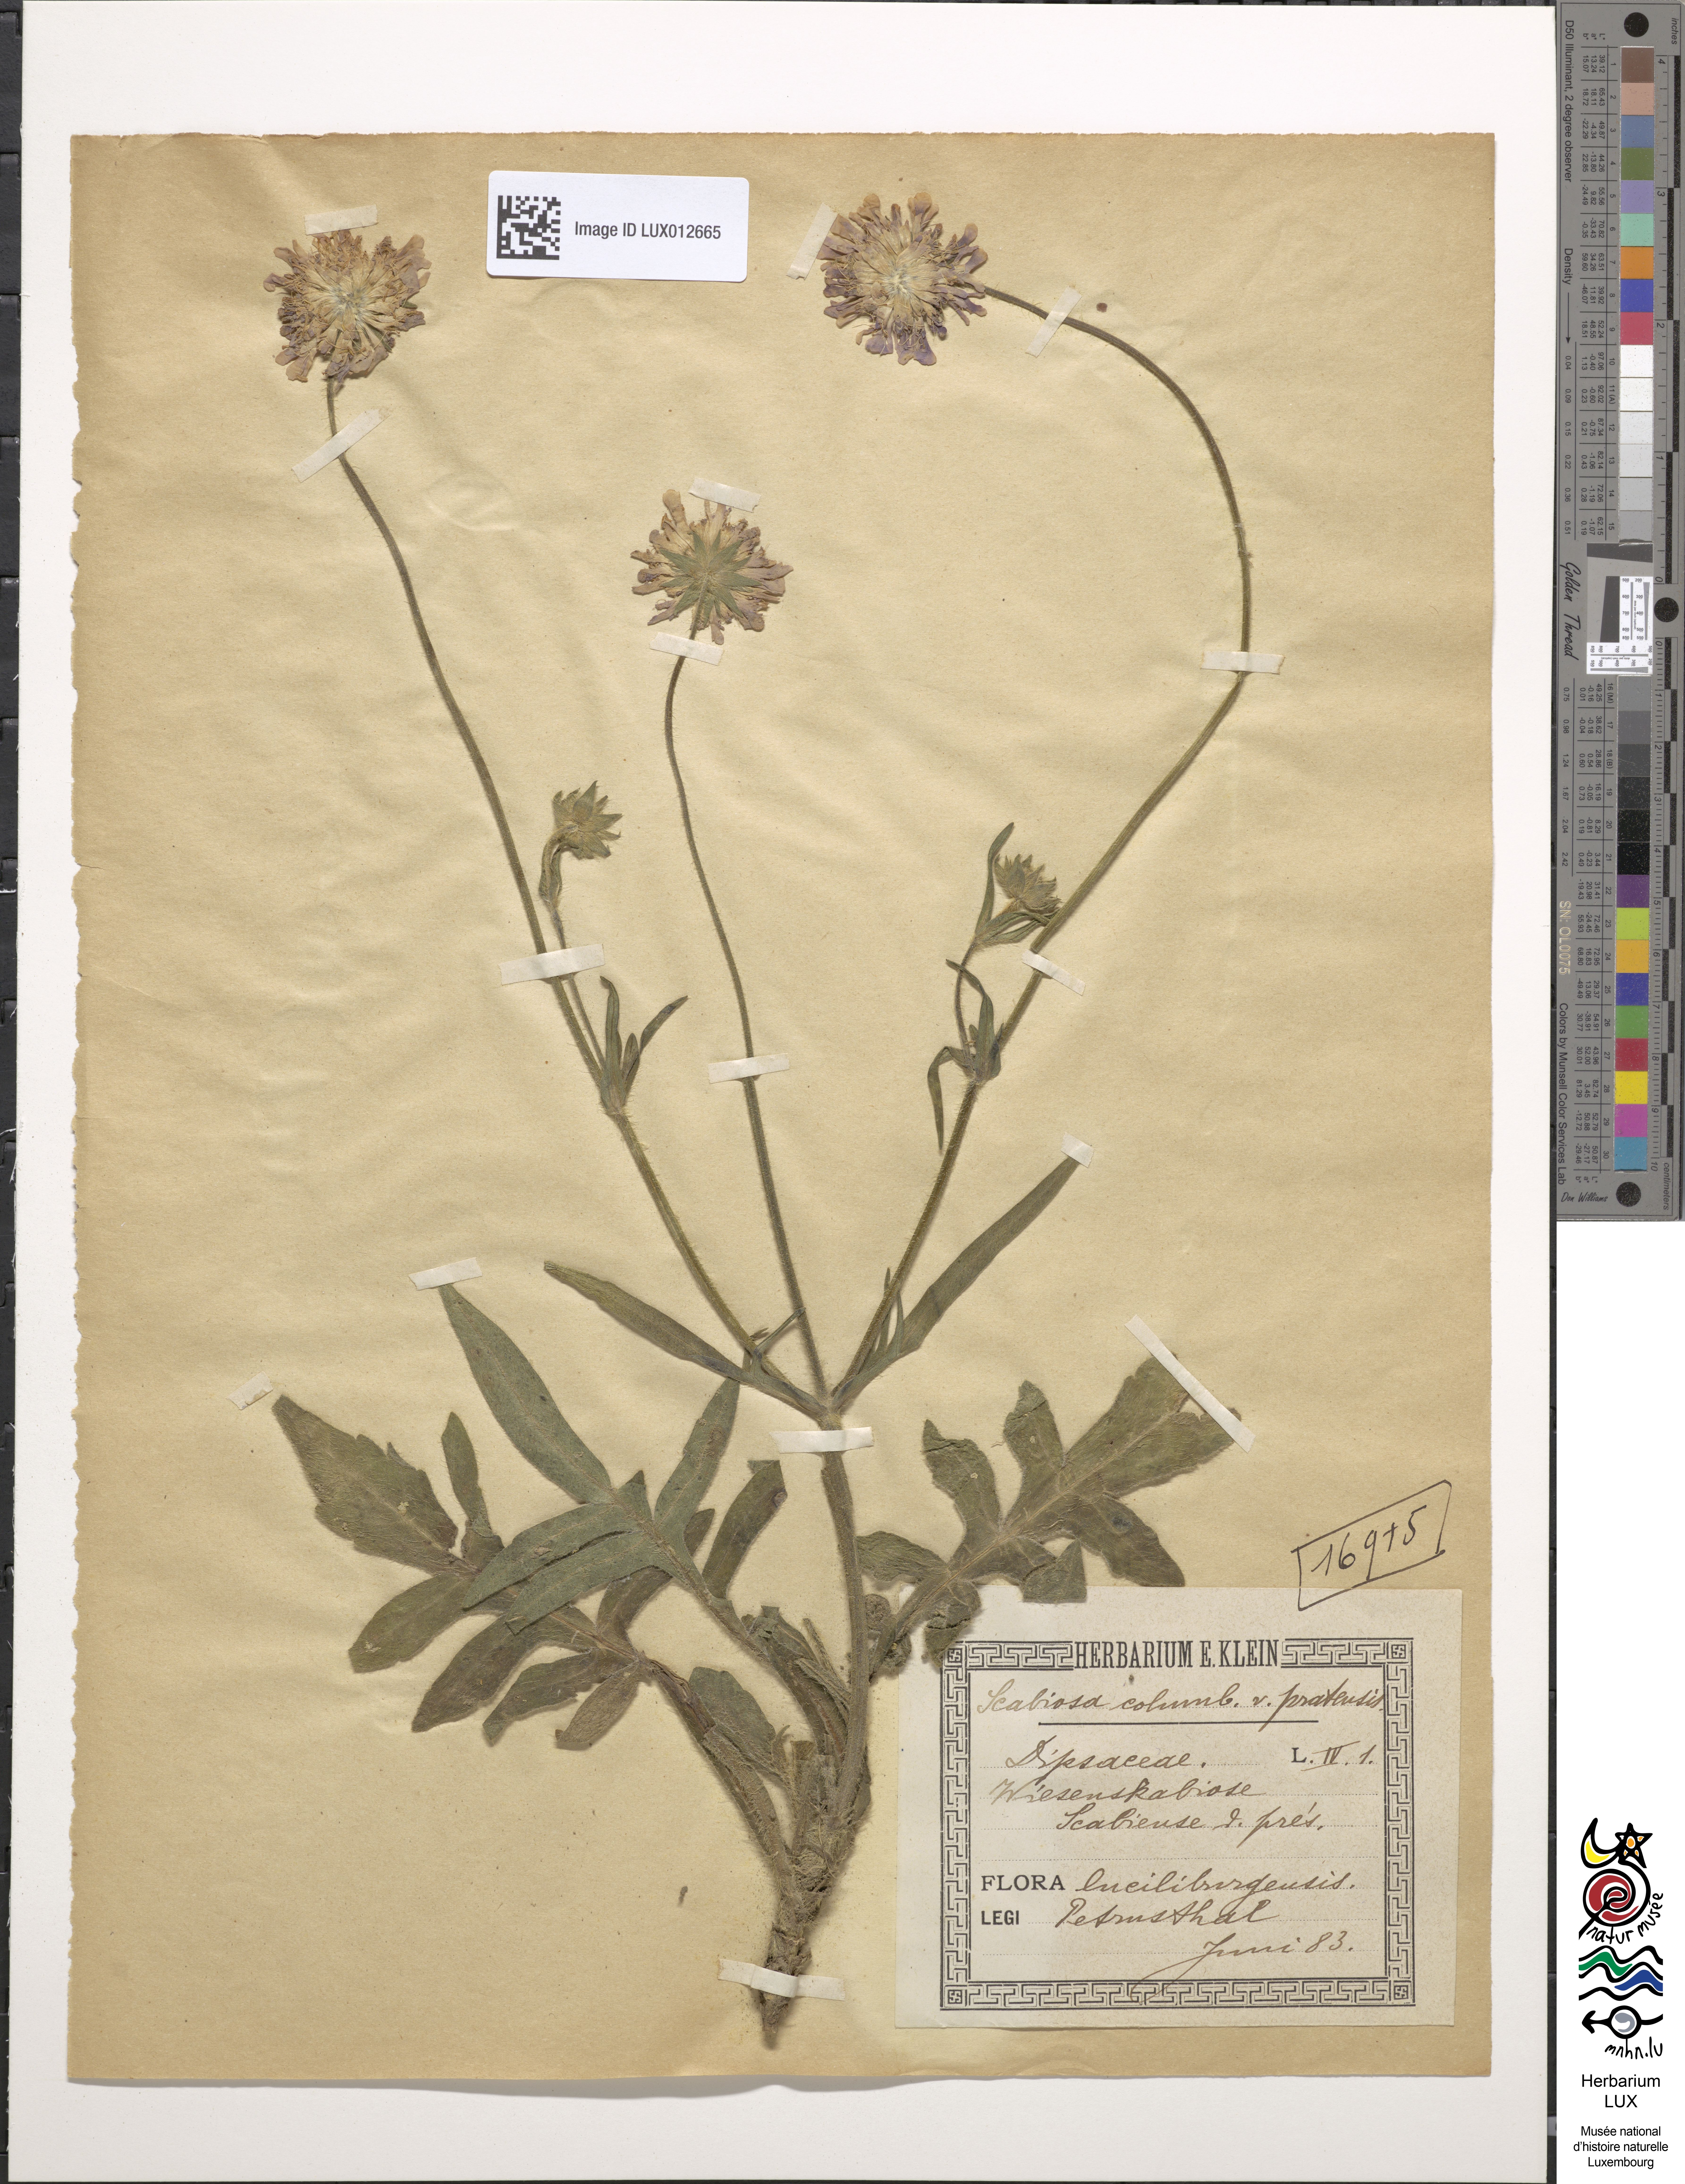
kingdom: Plantae
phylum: Tracheophyta
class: Magnoliopsida
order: Dipsacales
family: Caprifoliaceae
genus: Scabiosa
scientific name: Scabiosa columbaria
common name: Small scabious
